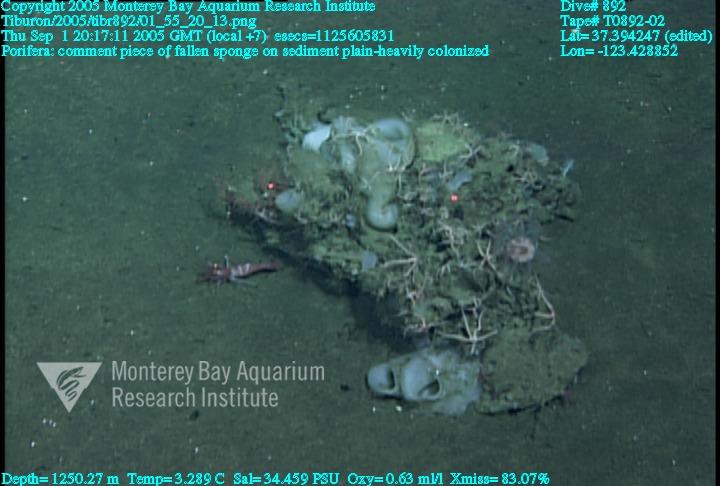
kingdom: Animalia
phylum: Porifera
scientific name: Porifera
